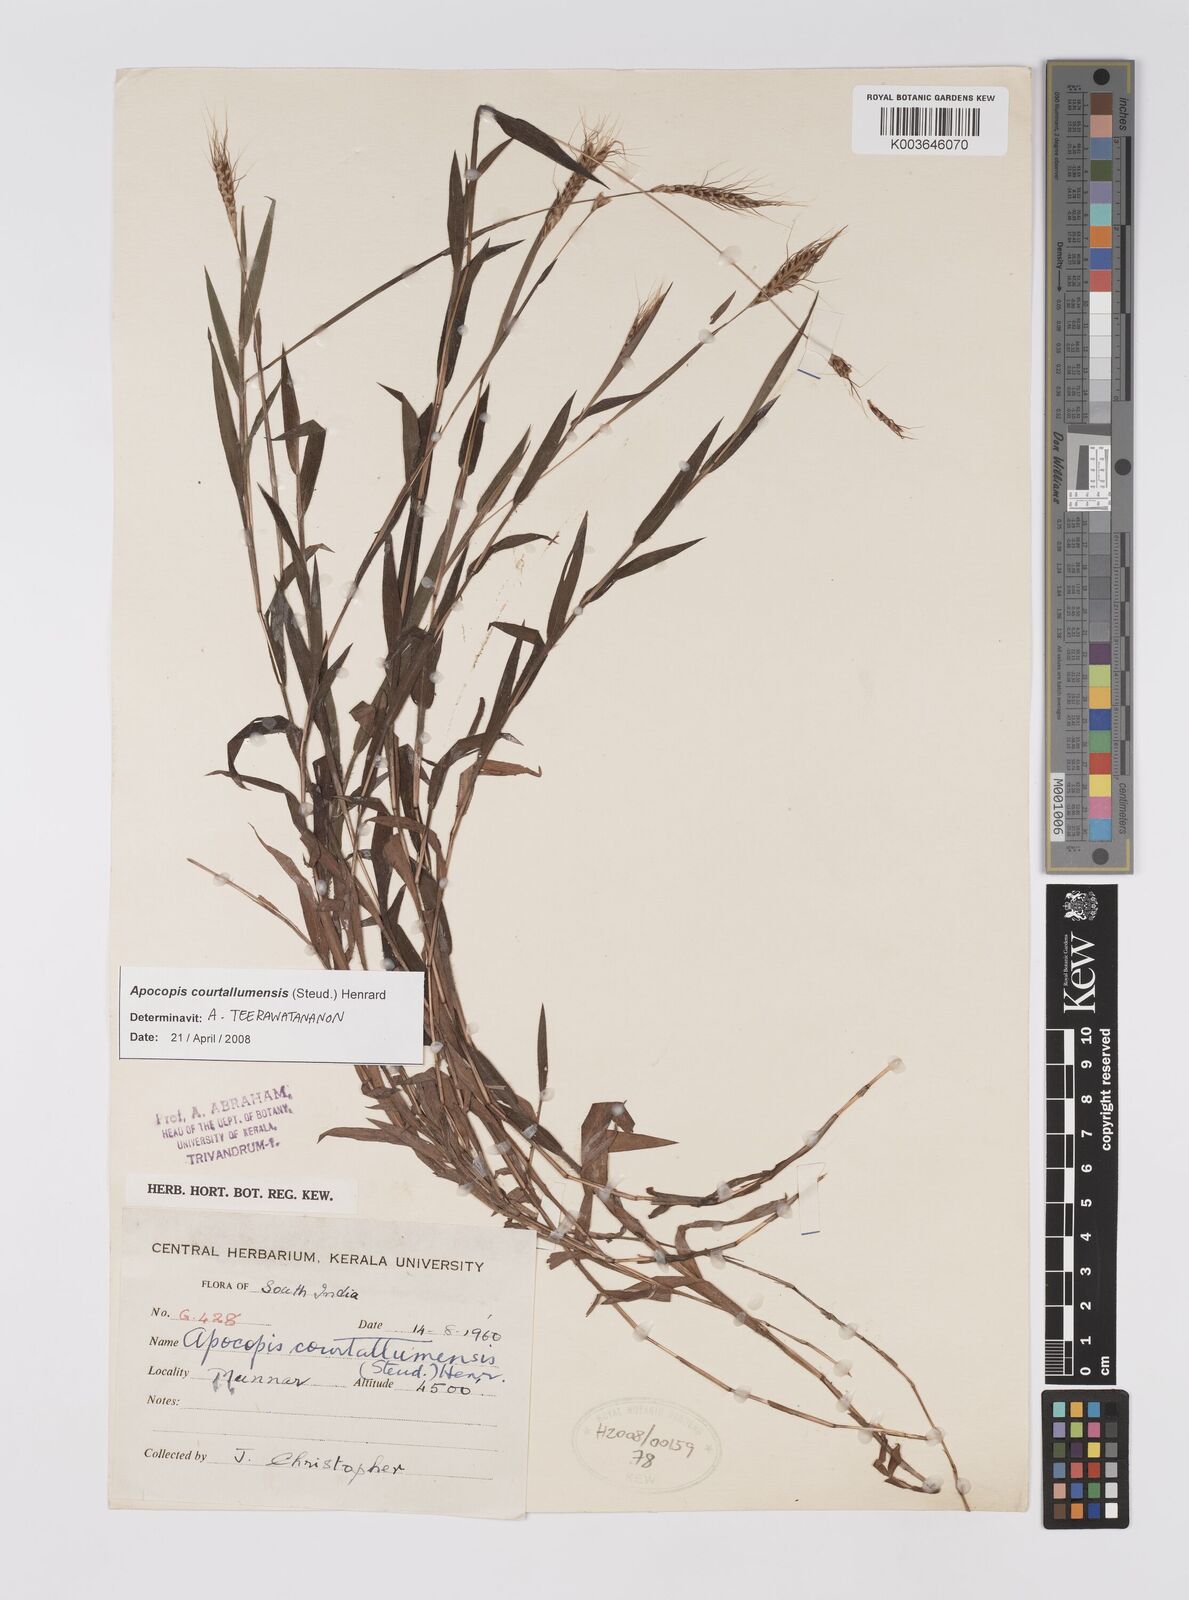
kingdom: Plantae
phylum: Tracheophyta
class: Liliopsida
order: Poales
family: Poaceae
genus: Apocopis
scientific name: Apocopis courtallumensis
